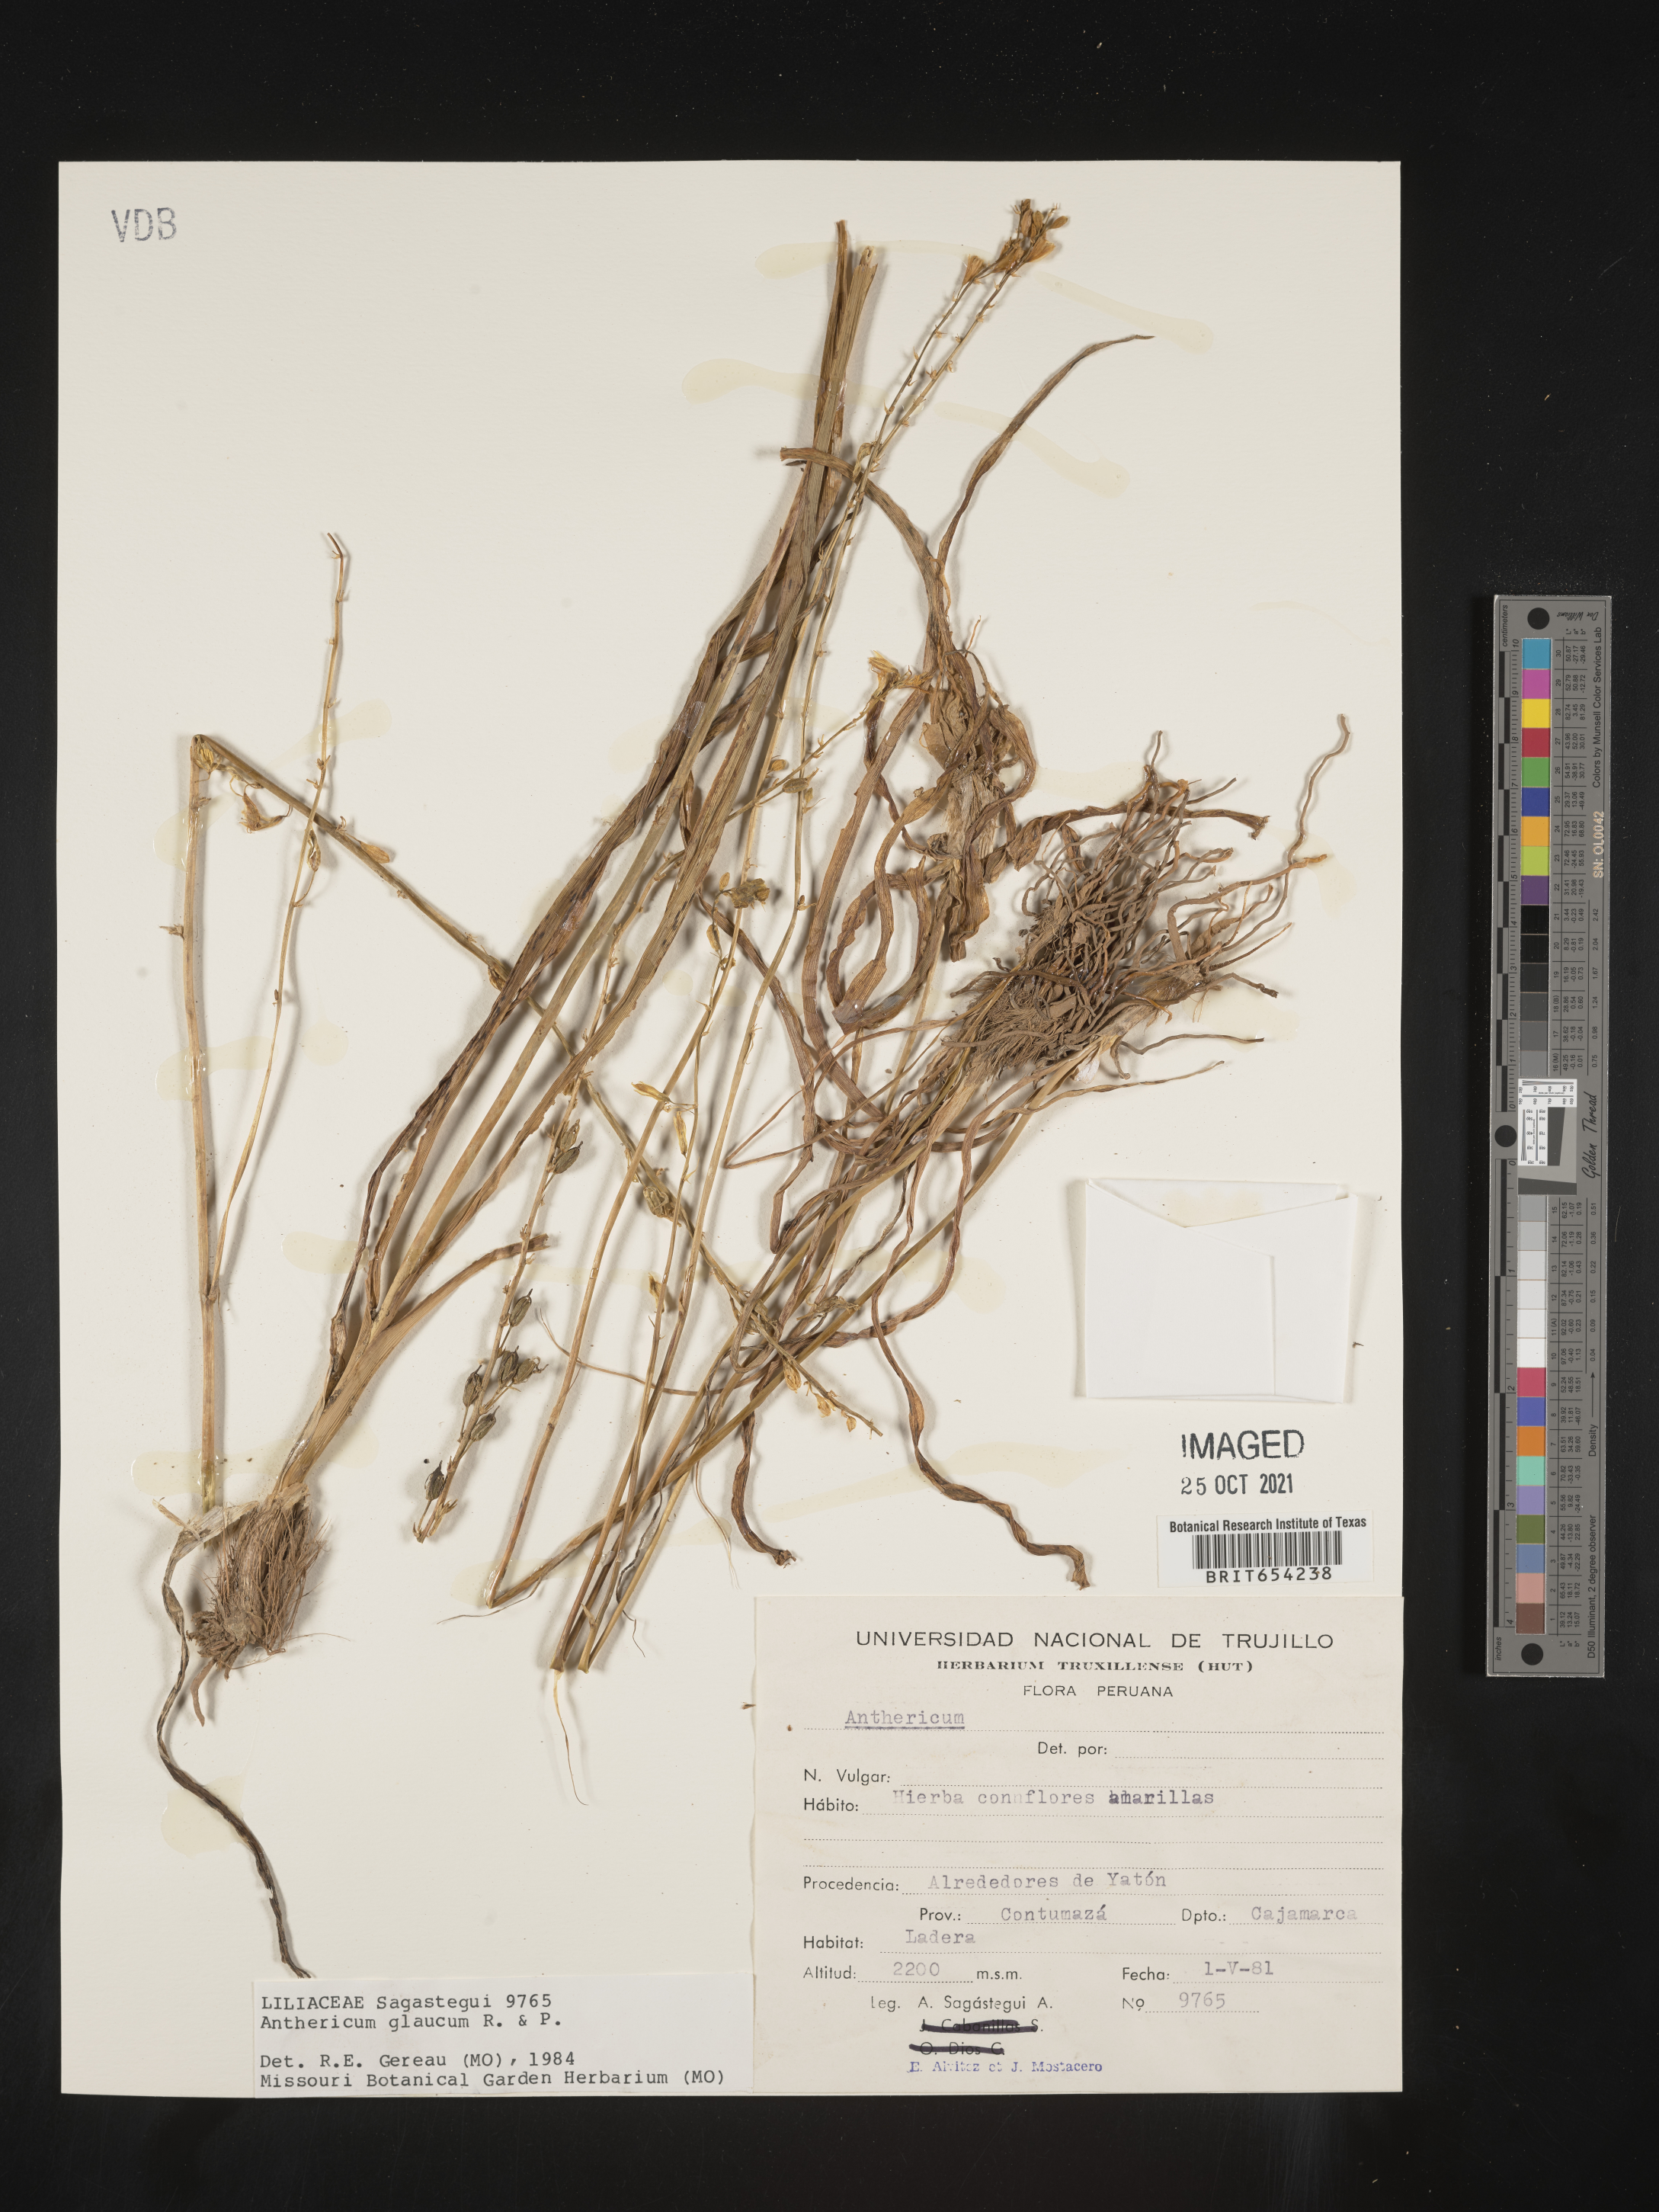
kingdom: Plantae
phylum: Tracheophyta
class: Liliopsida
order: Asparagales
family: Asparagaceae
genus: Trihesperus
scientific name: Trihesperus glaucus
